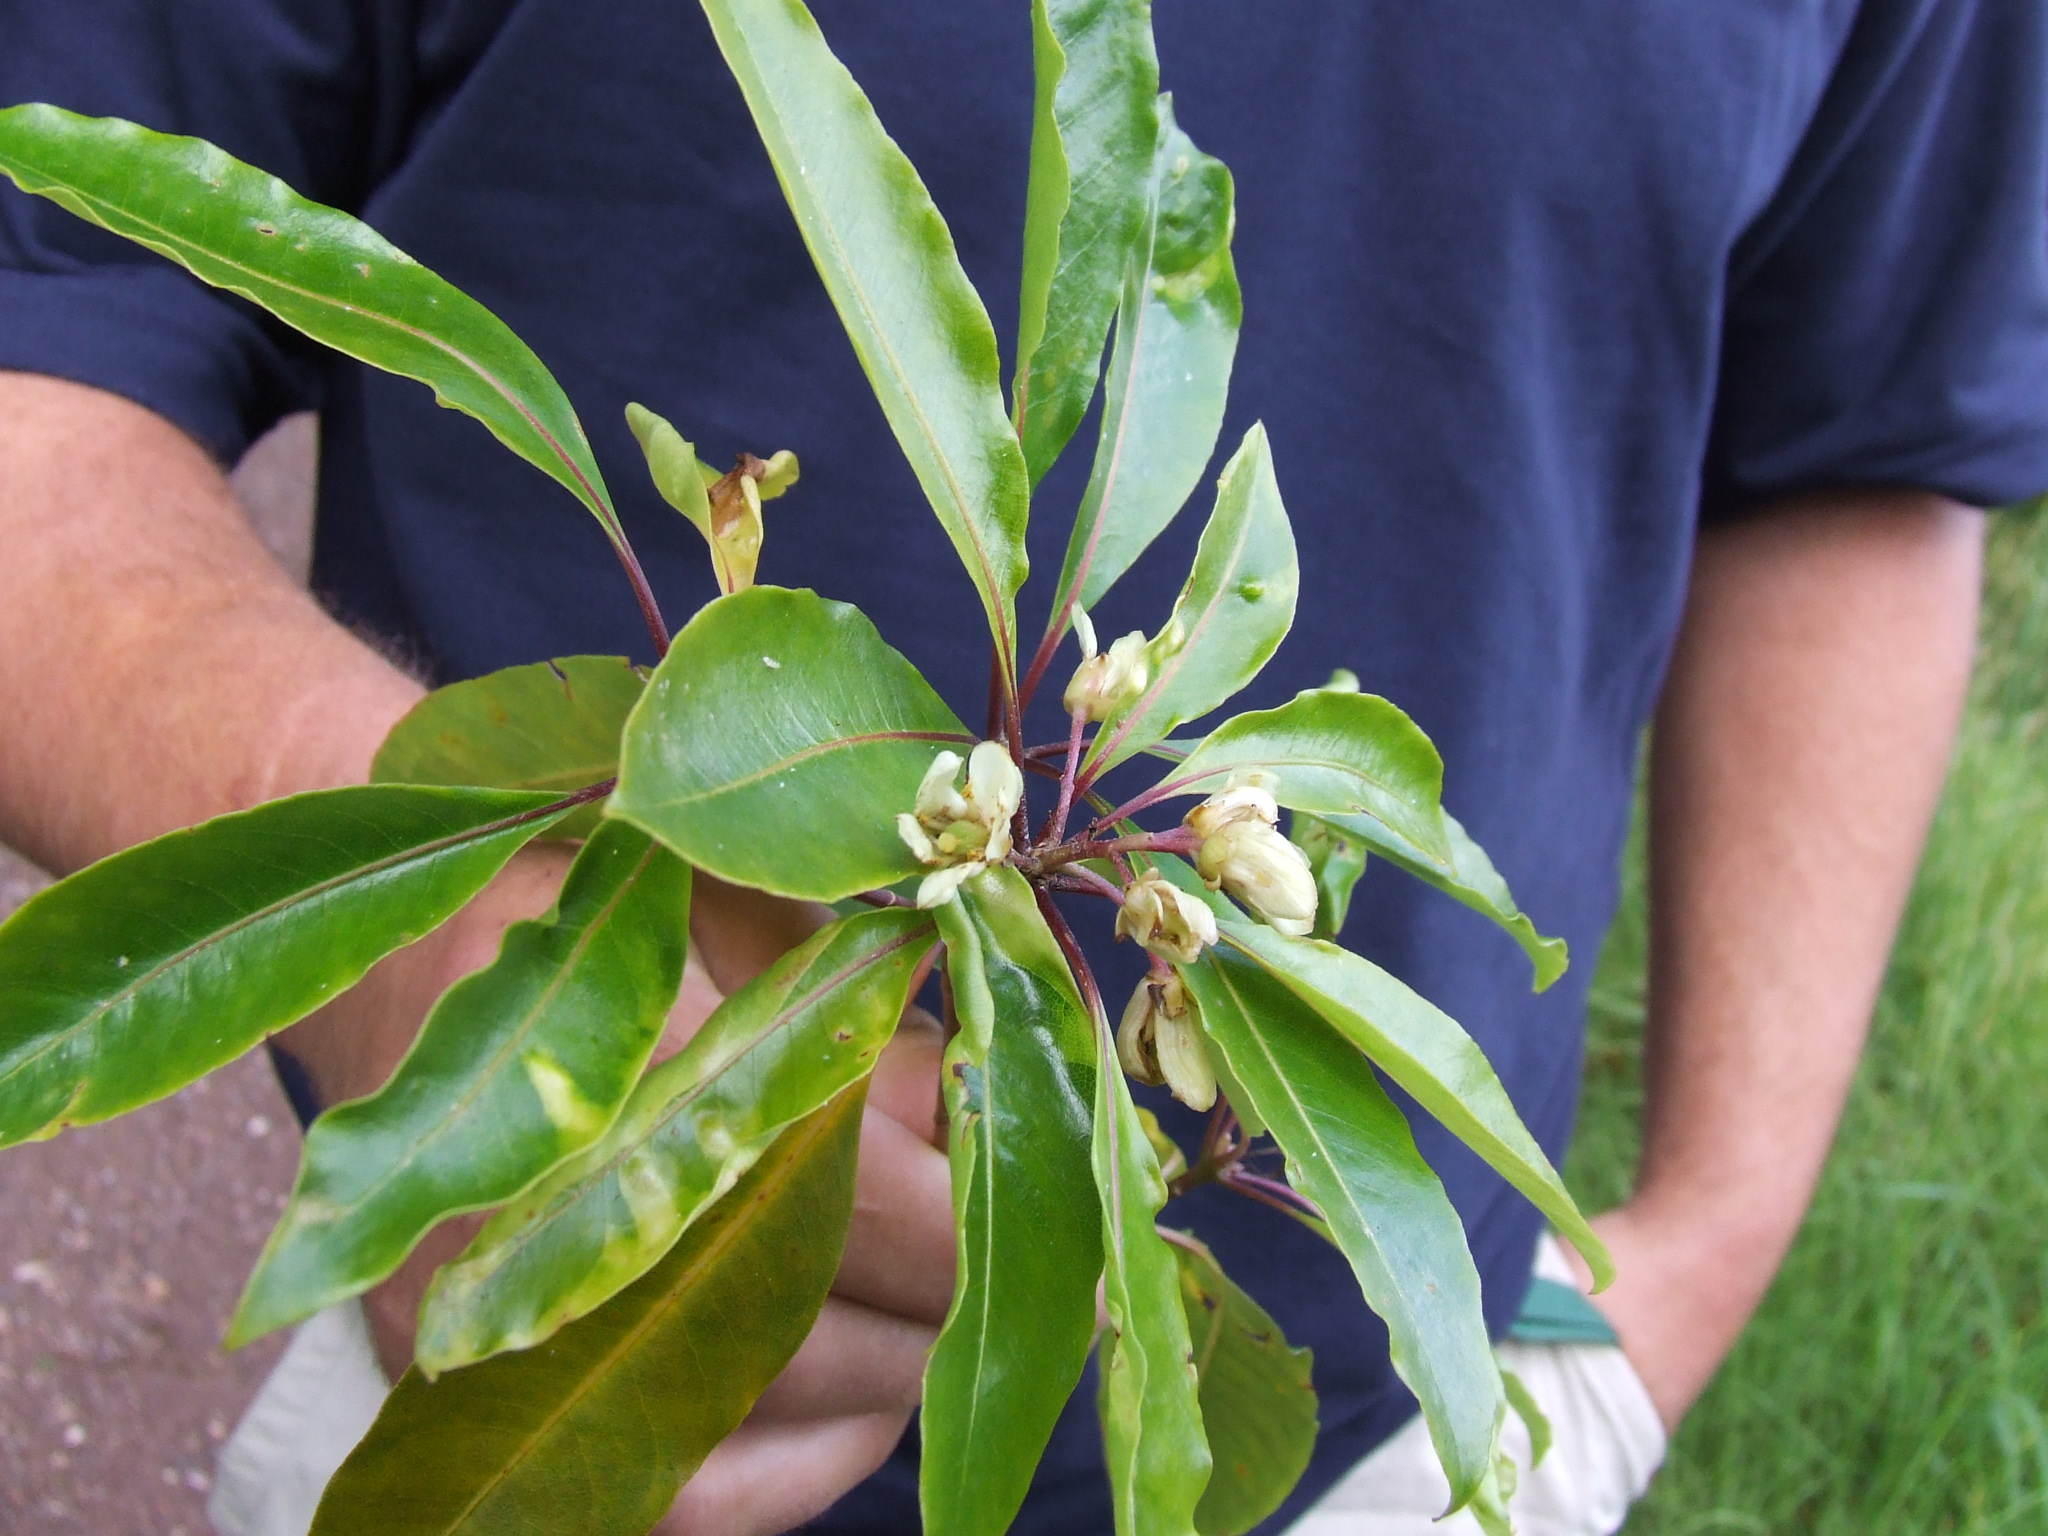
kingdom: Plantae
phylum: Tracheophyta
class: Magnoliopsida
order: Apiales
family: Pittosporaceae
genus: Pittosporum
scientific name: Pittosporum undulatum
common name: Australian cheesewood
